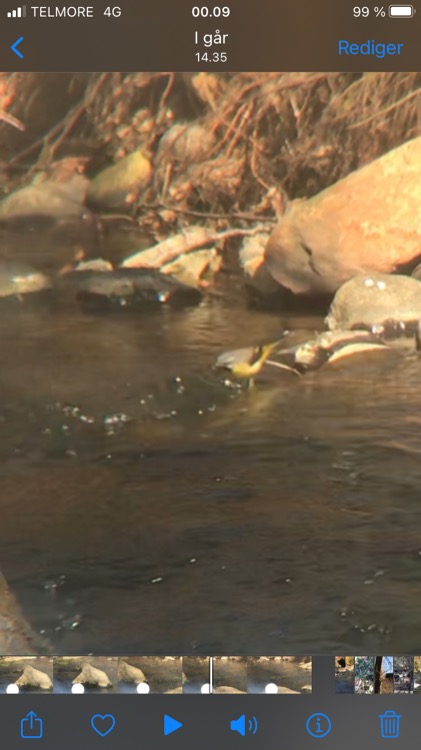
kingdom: Animalia
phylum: Chordata
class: Aves
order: Passeriformes
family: Motacillidae
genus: Motacilla
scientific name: Motacilla cinerea
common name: Bjergvipstjert
